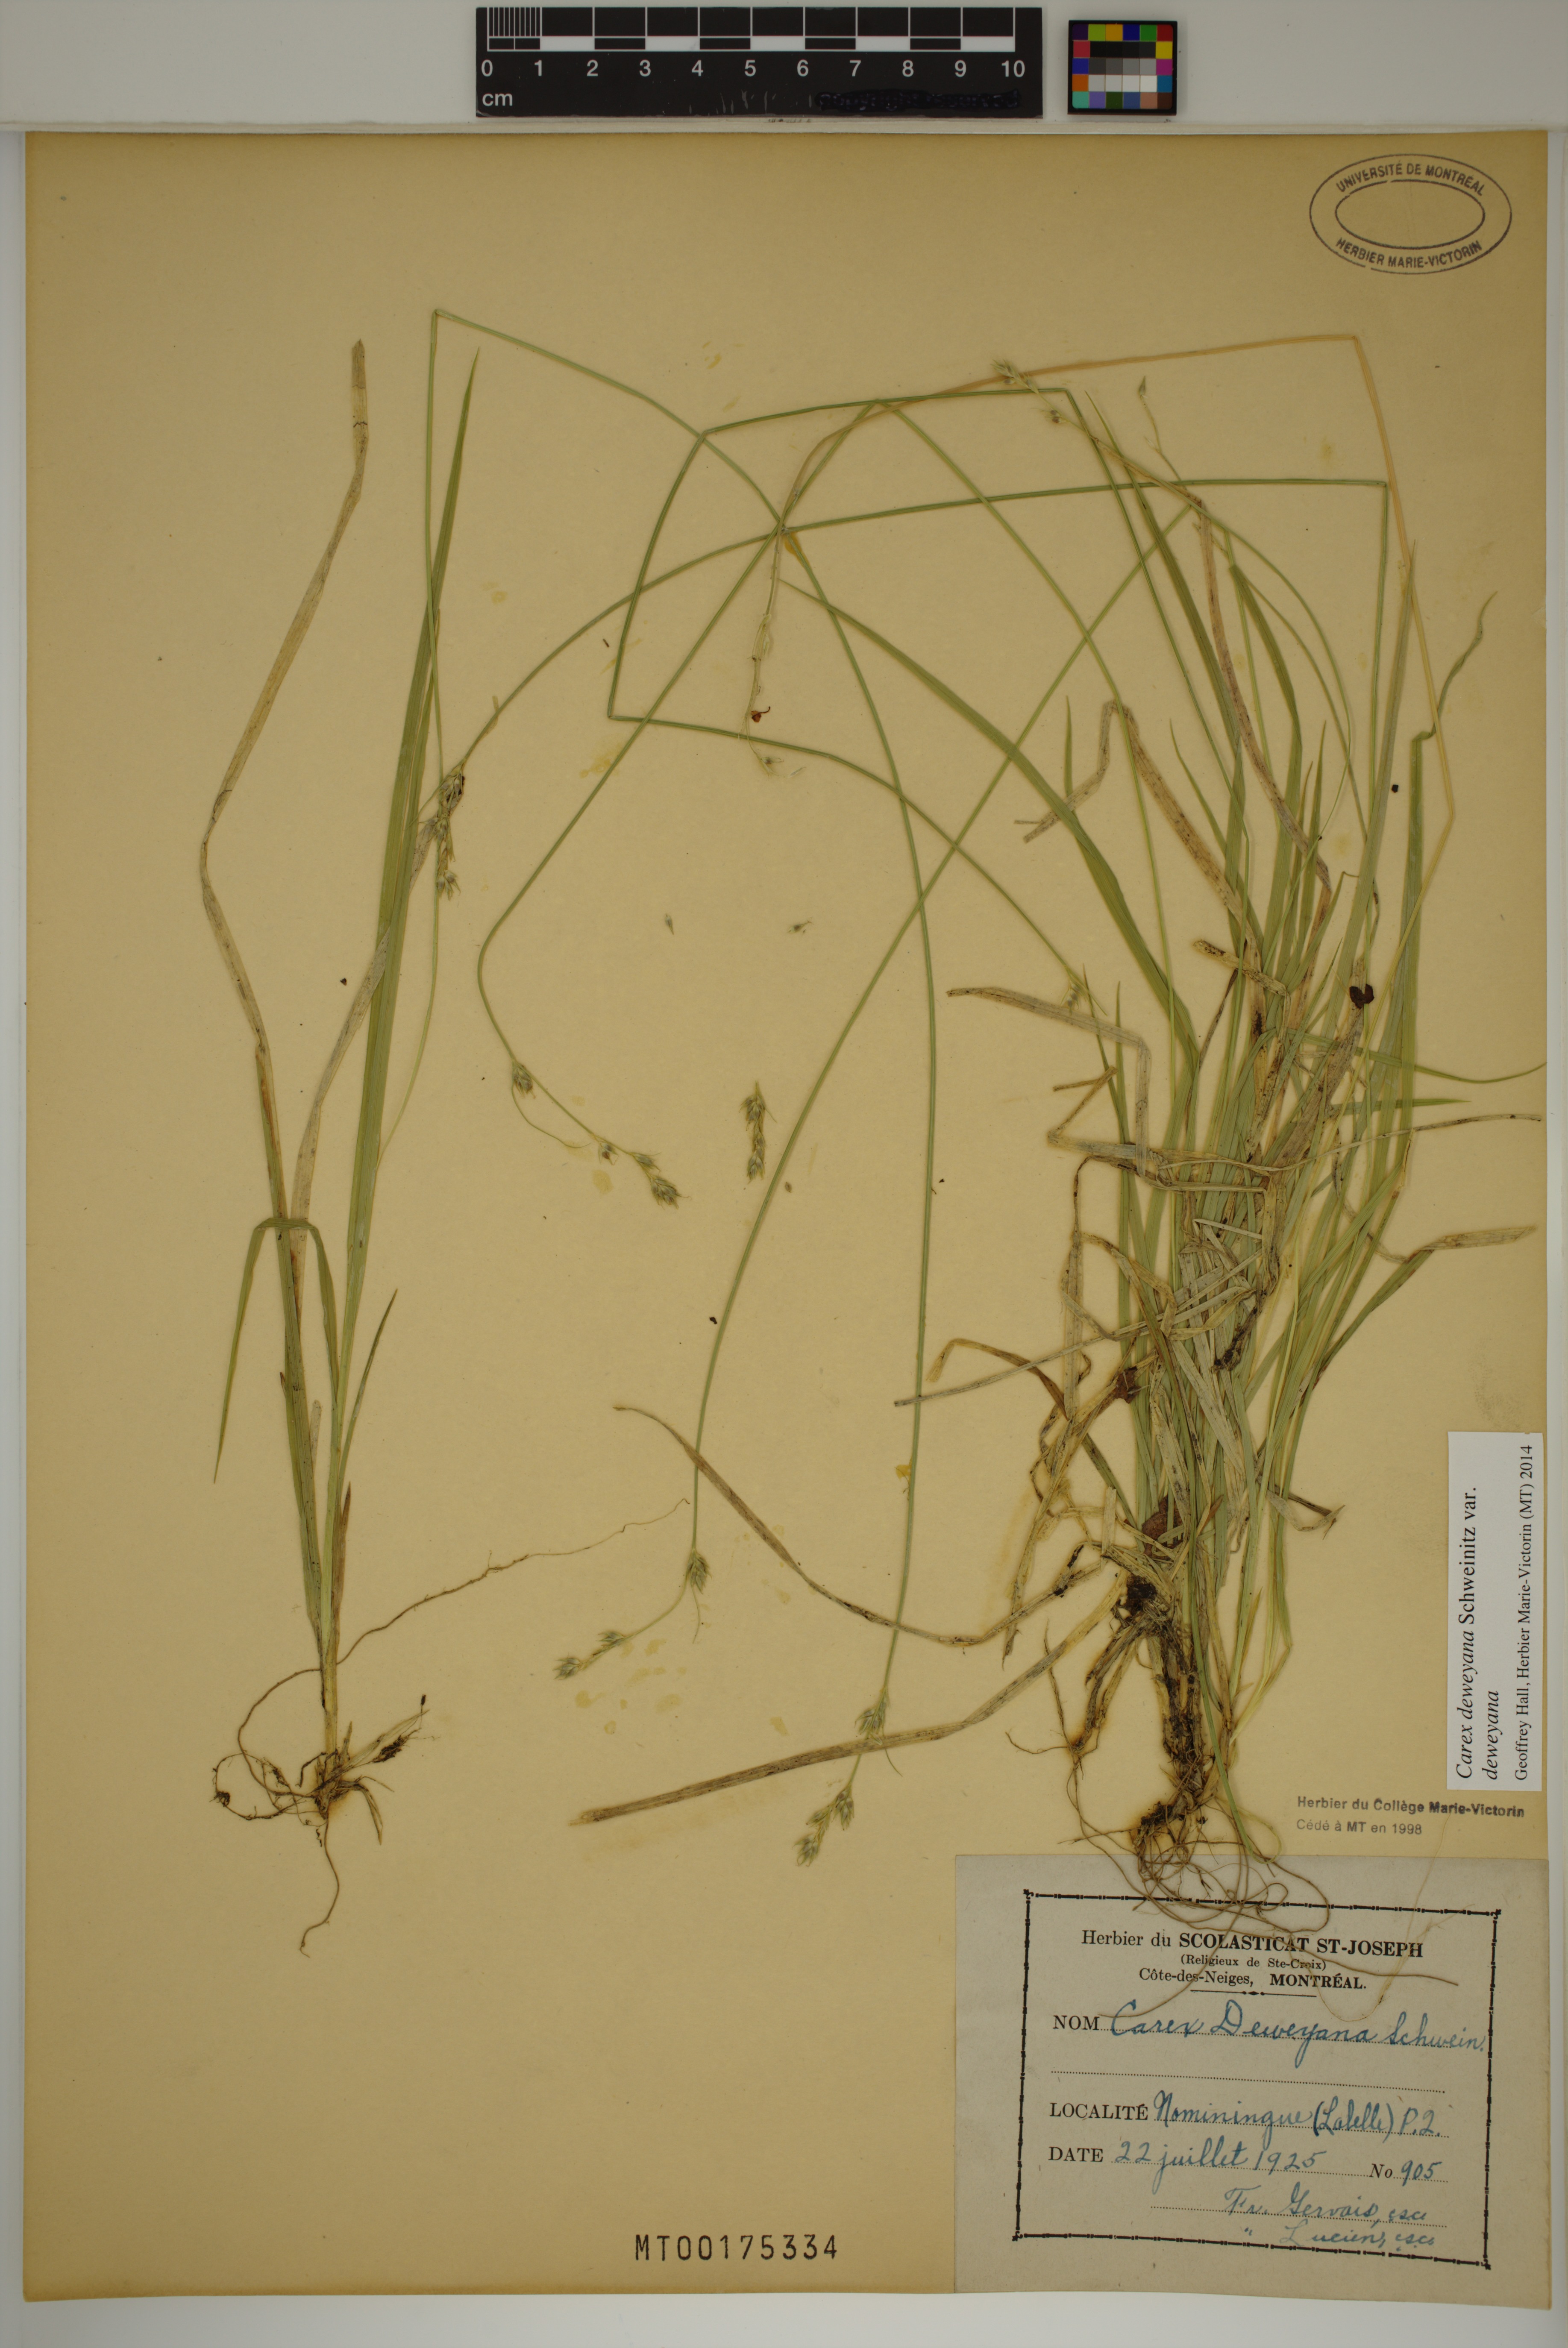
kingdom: Plantae
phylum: Tracheophyta
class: Liliopsida
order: Poales
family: Cyperaceae
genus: Carex
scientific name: Carex deweyana
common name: Dewey's sedge
